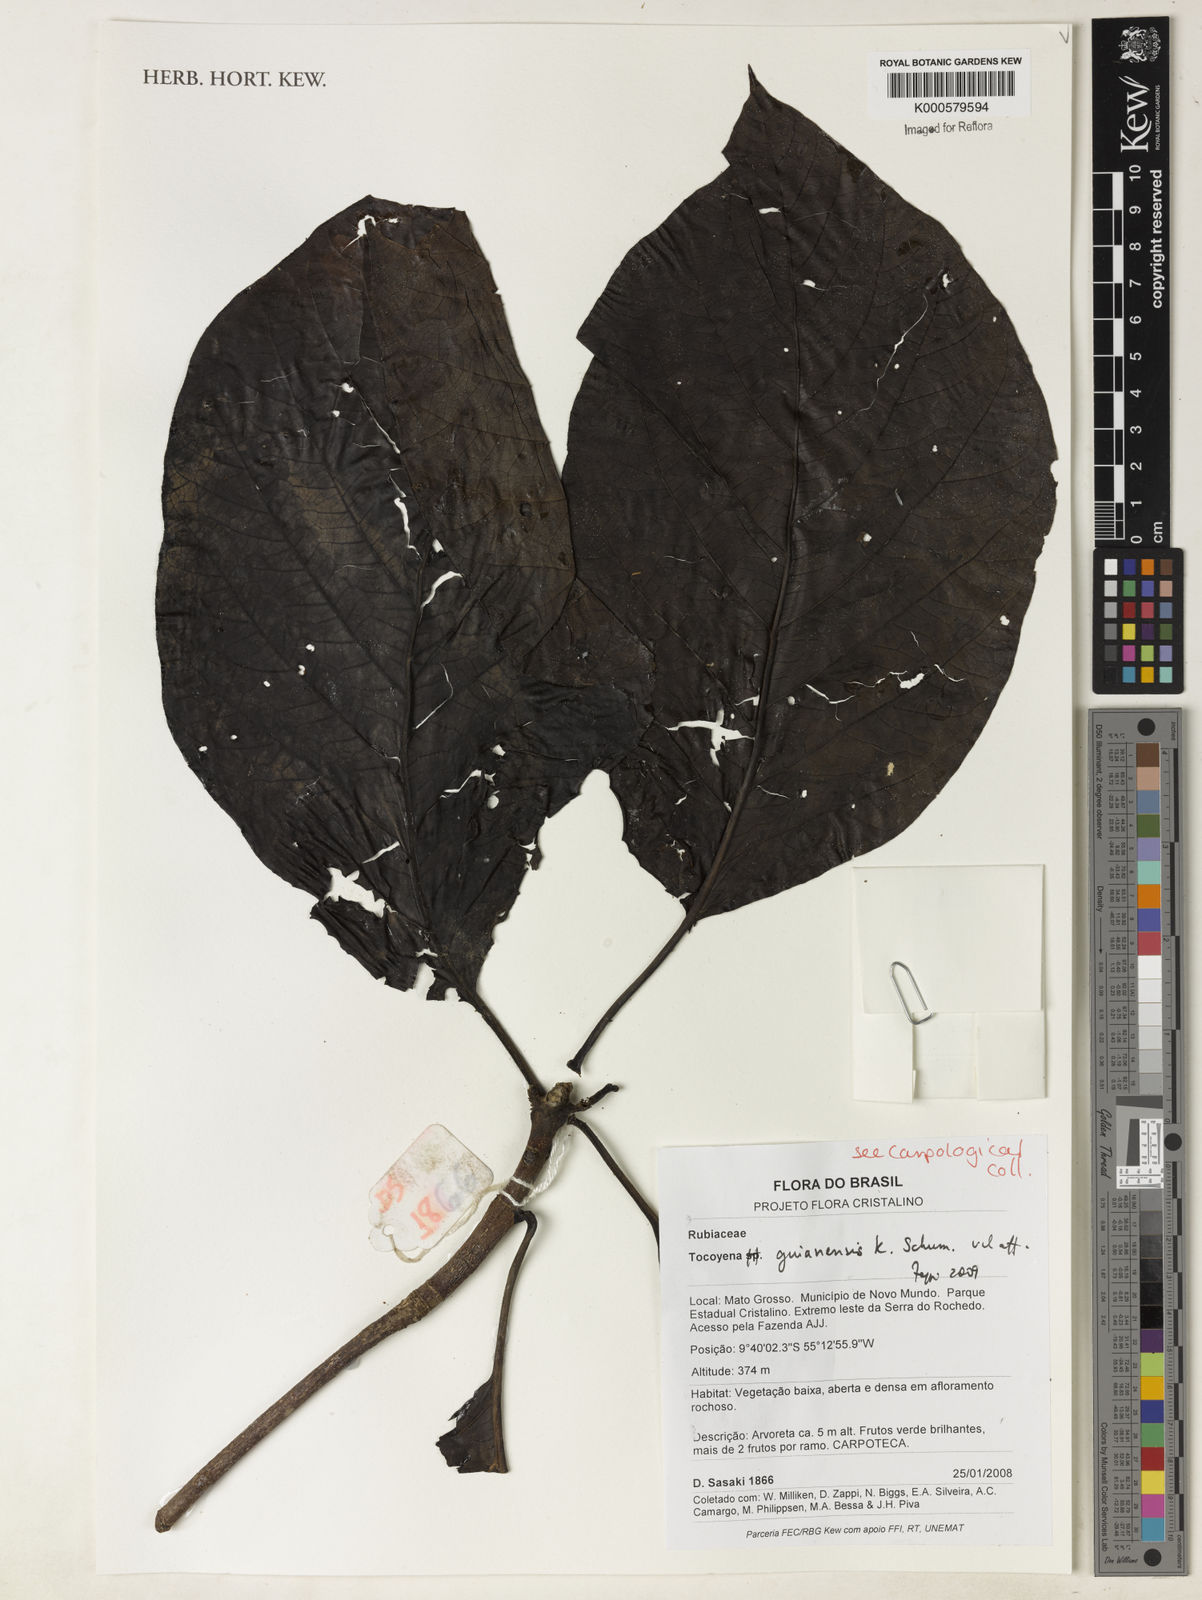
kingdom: Plantae
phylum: Tracheophyta
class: Magnoliopsida
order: Gentianales
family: Rubiaceae
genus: Tocoyena
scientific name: Tocoyena guianensis
